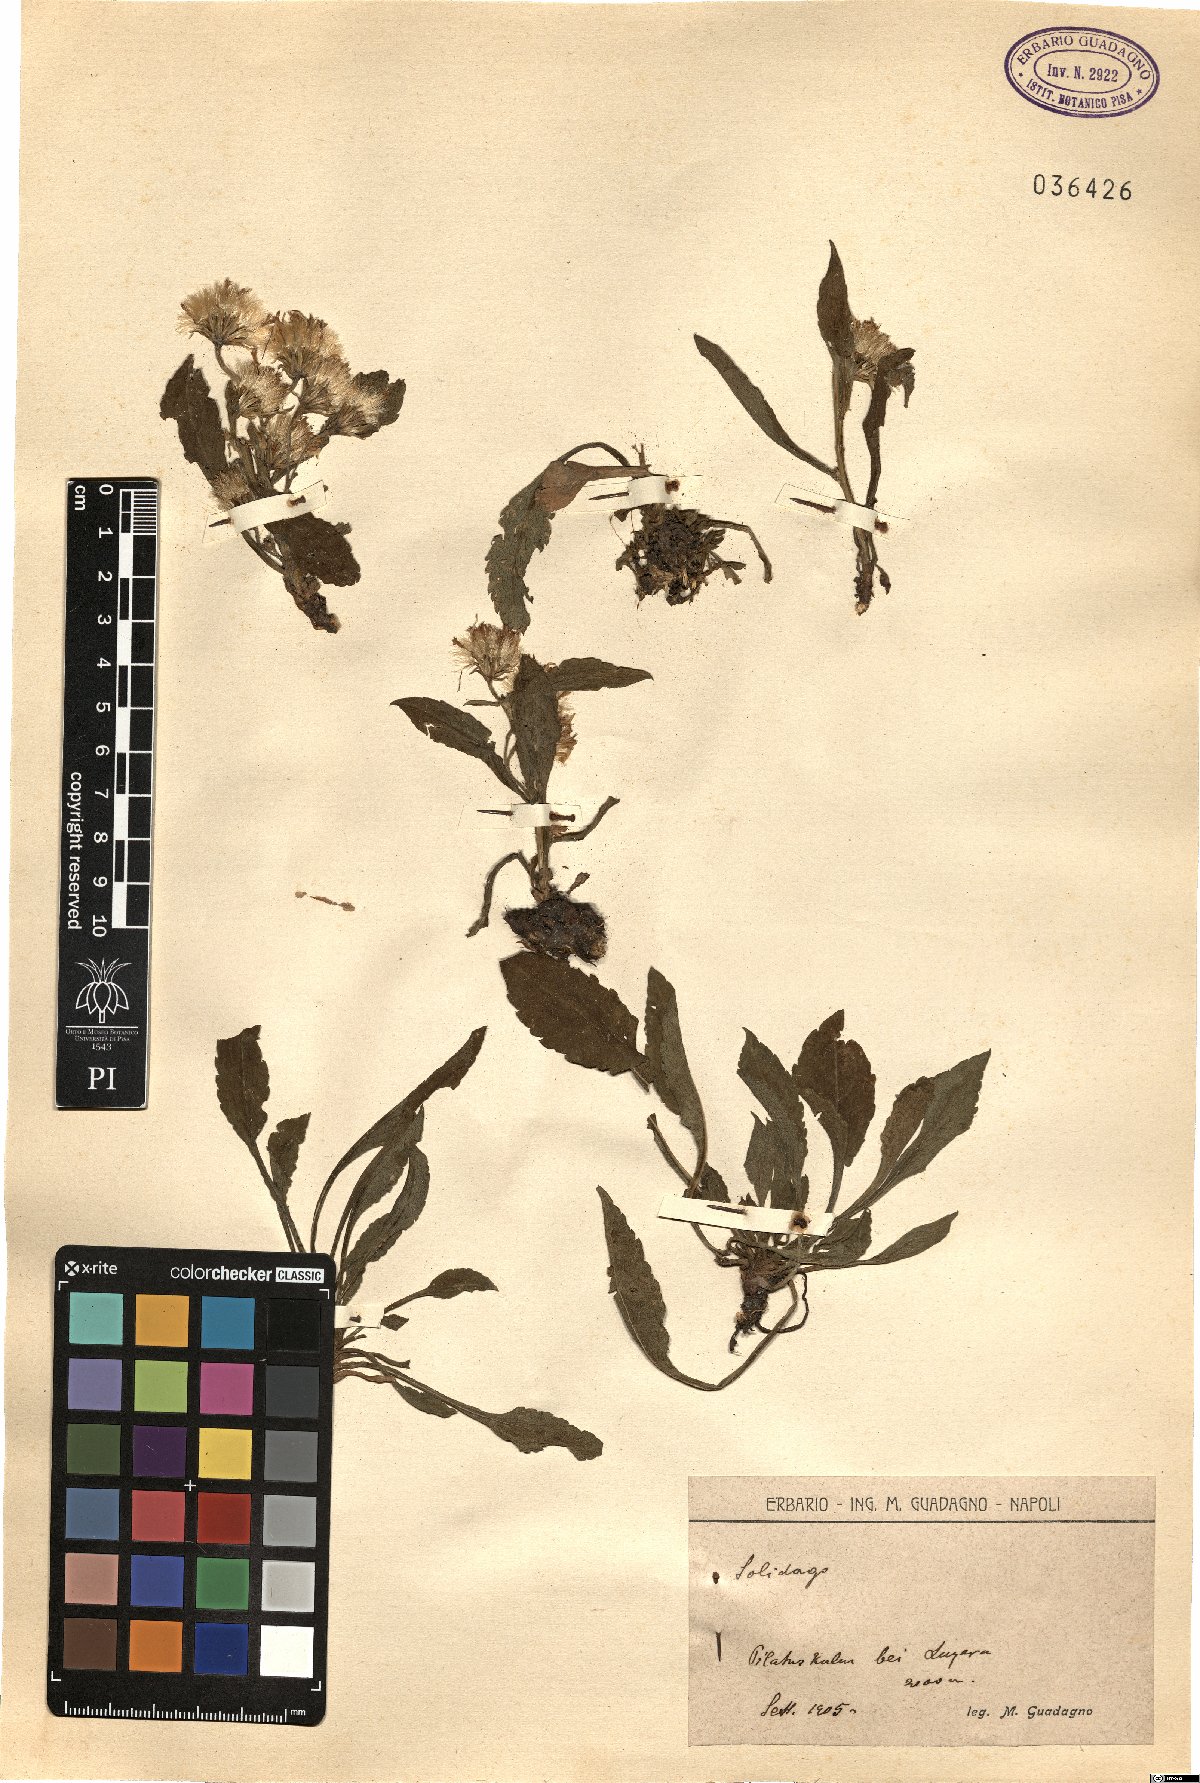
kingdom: Plantae
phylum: Tracheophyta
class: Magnoliopsida
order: Asterales
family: Asteraceae
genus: Solidago
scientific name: Solidago
